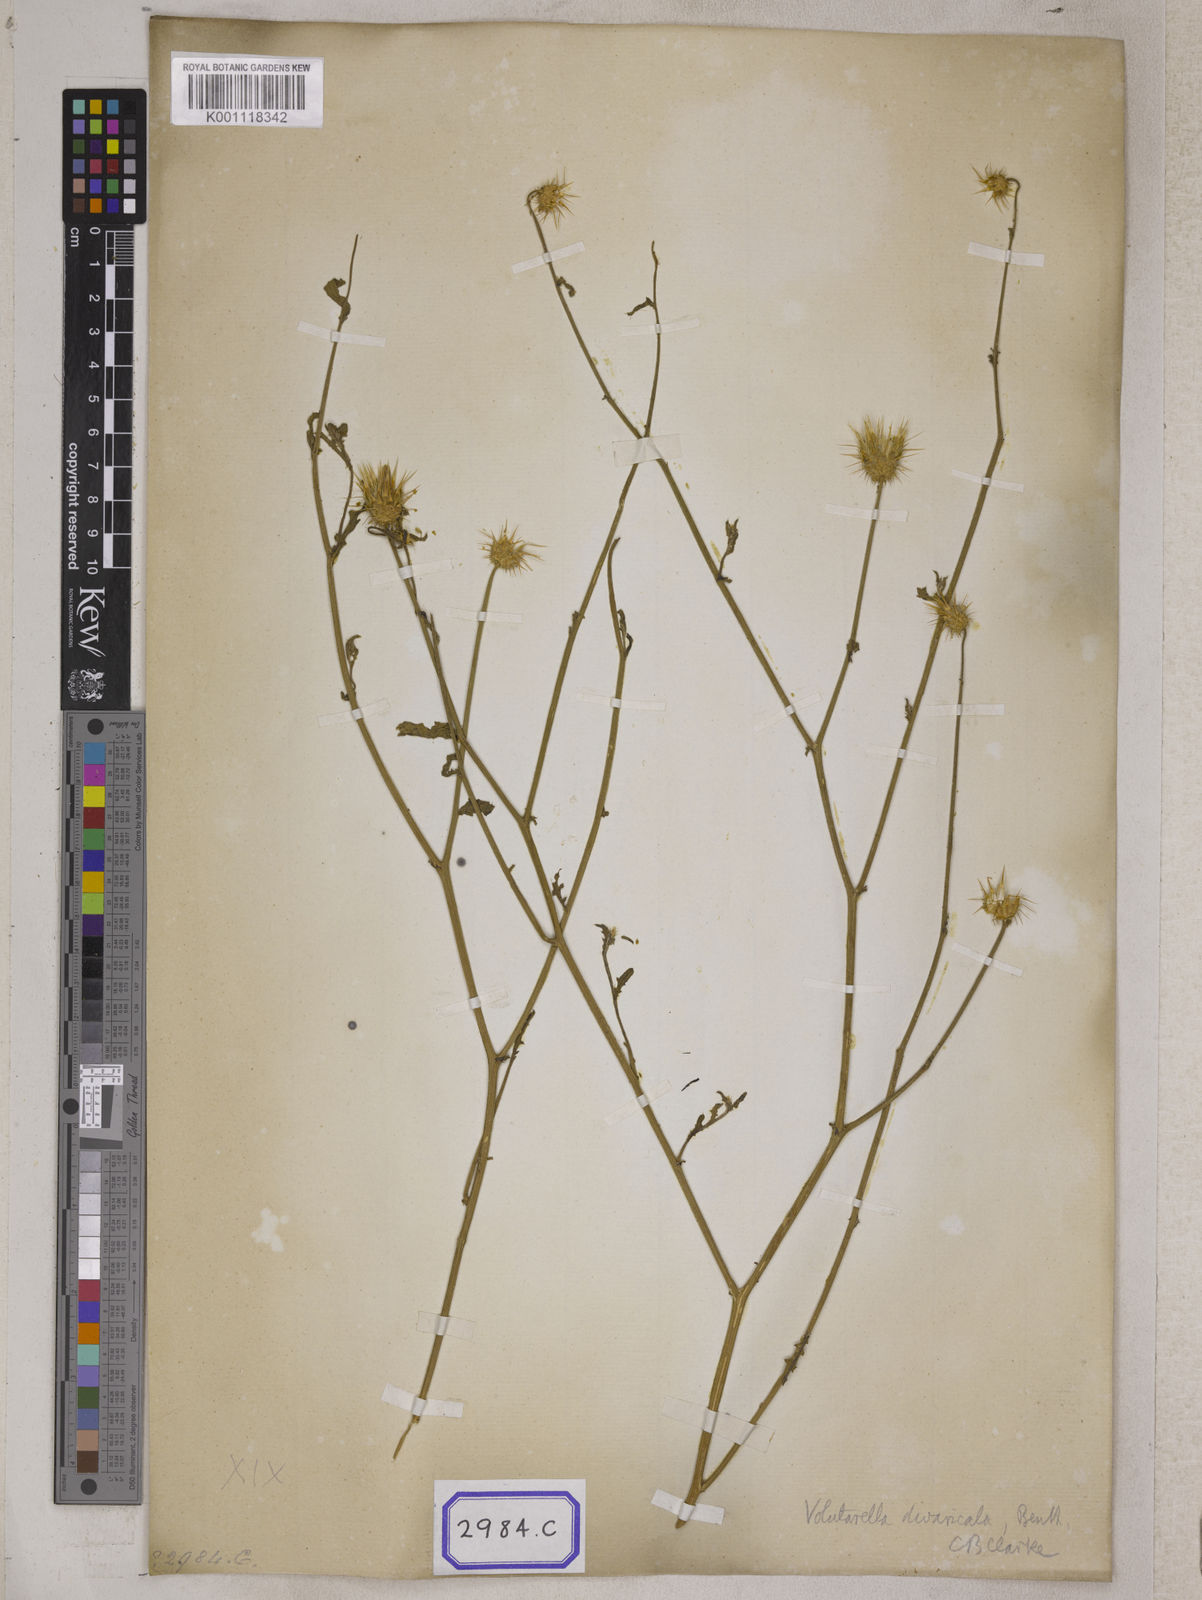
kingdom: Plantae
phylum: Tracheophyta
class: Magnoliopsida
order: Asterales
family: Asteraceae
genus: Centaurea
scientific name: Centaurea
